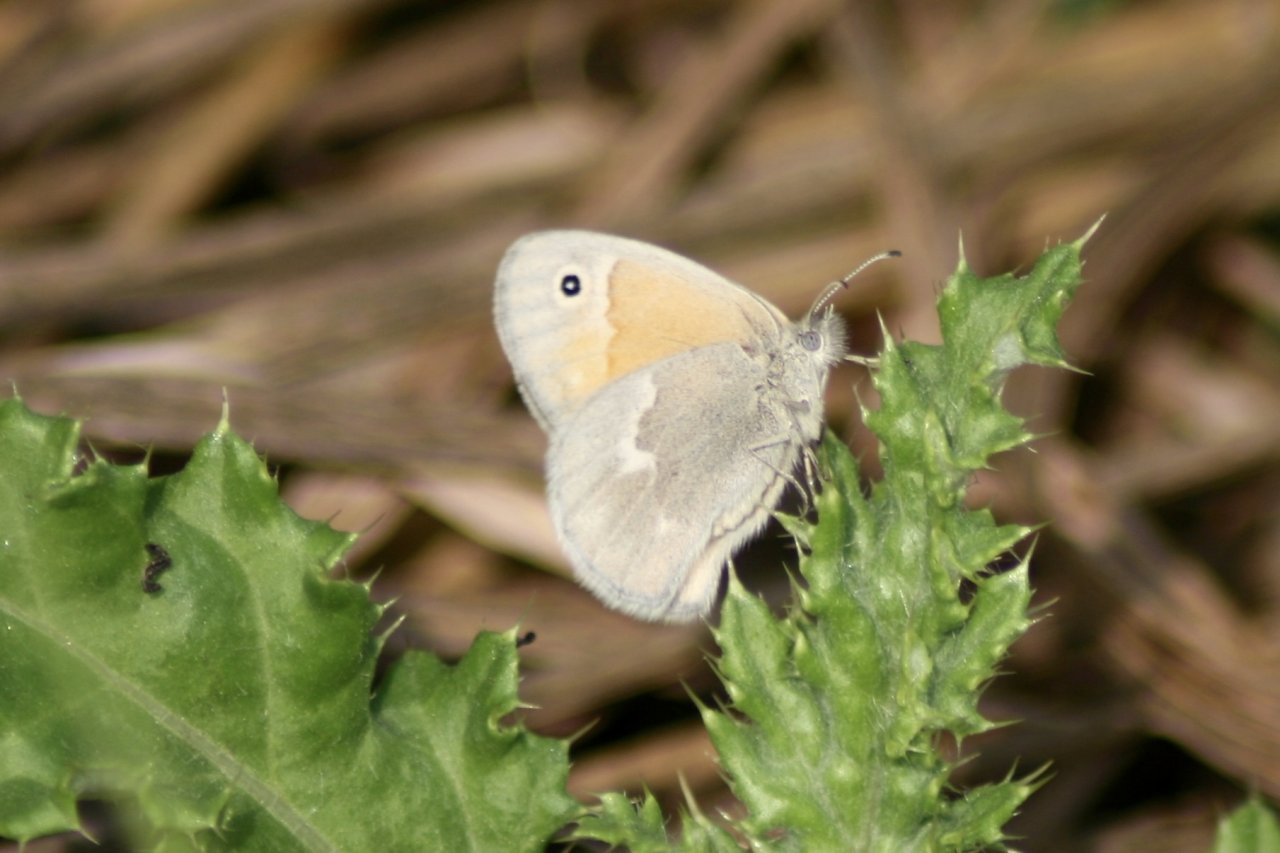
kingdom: Animalia
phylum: Arthropoda
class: Insecta
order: Lepidoptera
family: Nymphalidae
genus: Coenonympha
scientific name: Coenonympha tullia
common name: Large Heath
